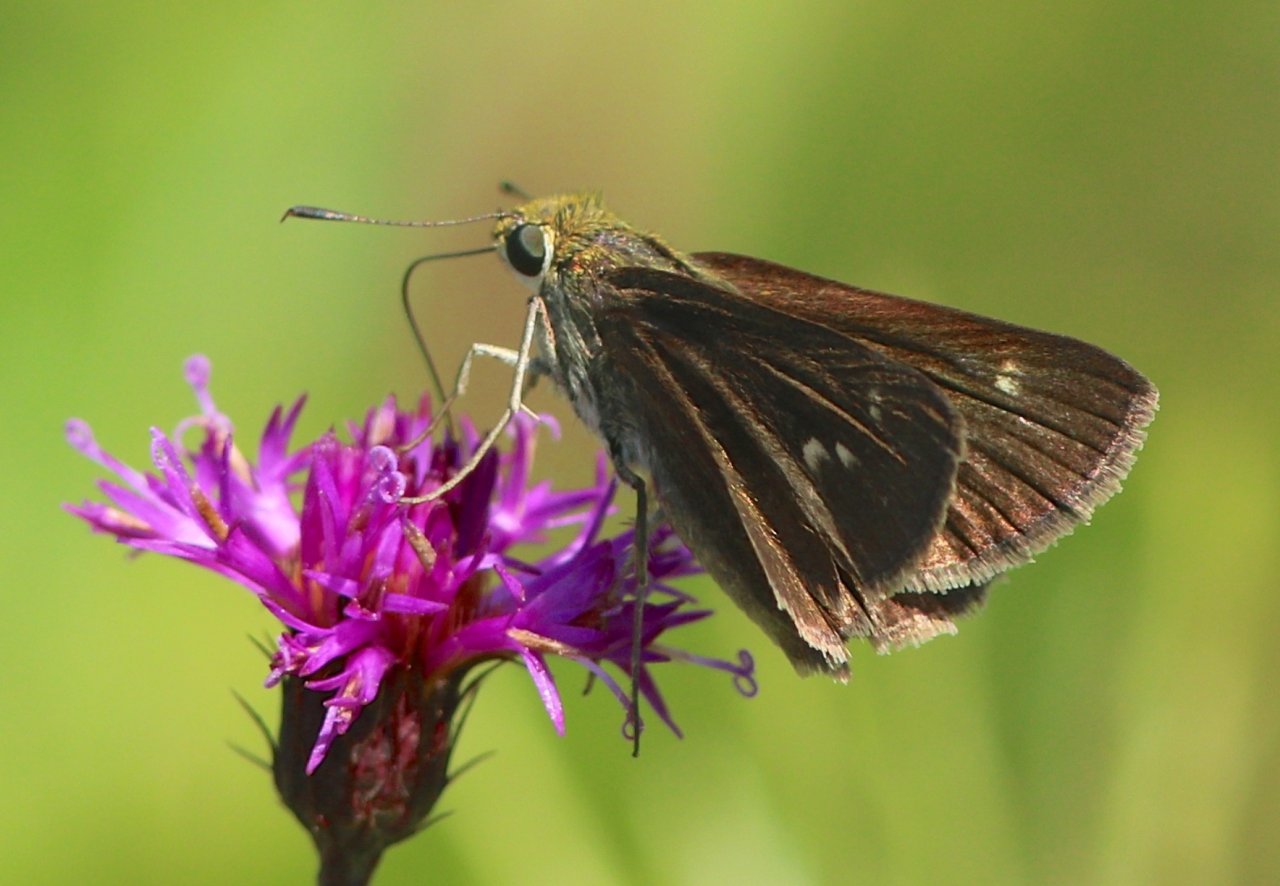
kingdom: Animalia
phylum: Arthropoda
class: Insecta
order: Lepidoptera
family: Hesperiidae
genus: Euphyes
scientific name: Euphyes vestris
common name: Dun Skipper
